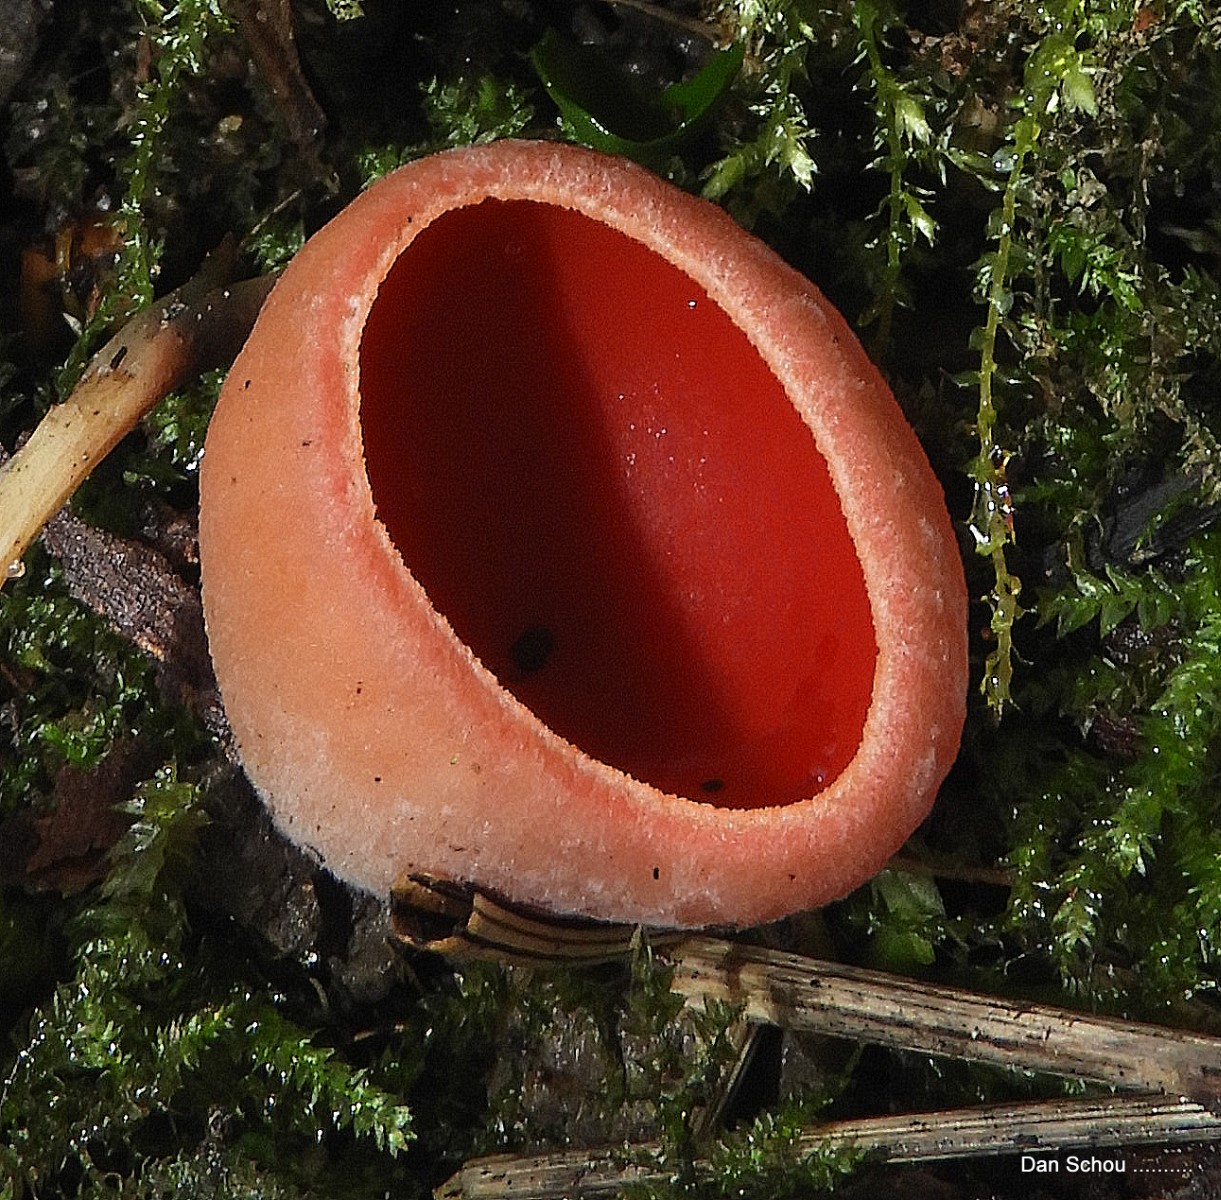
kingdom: Fungi
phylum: Ascomycota
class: Pezizomycetes
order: Pezizales
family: Sarcoscyphaceae
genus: Sarcoscypha
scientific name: Sarcoscypha austriaca
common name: krølhåret pragtbæger
